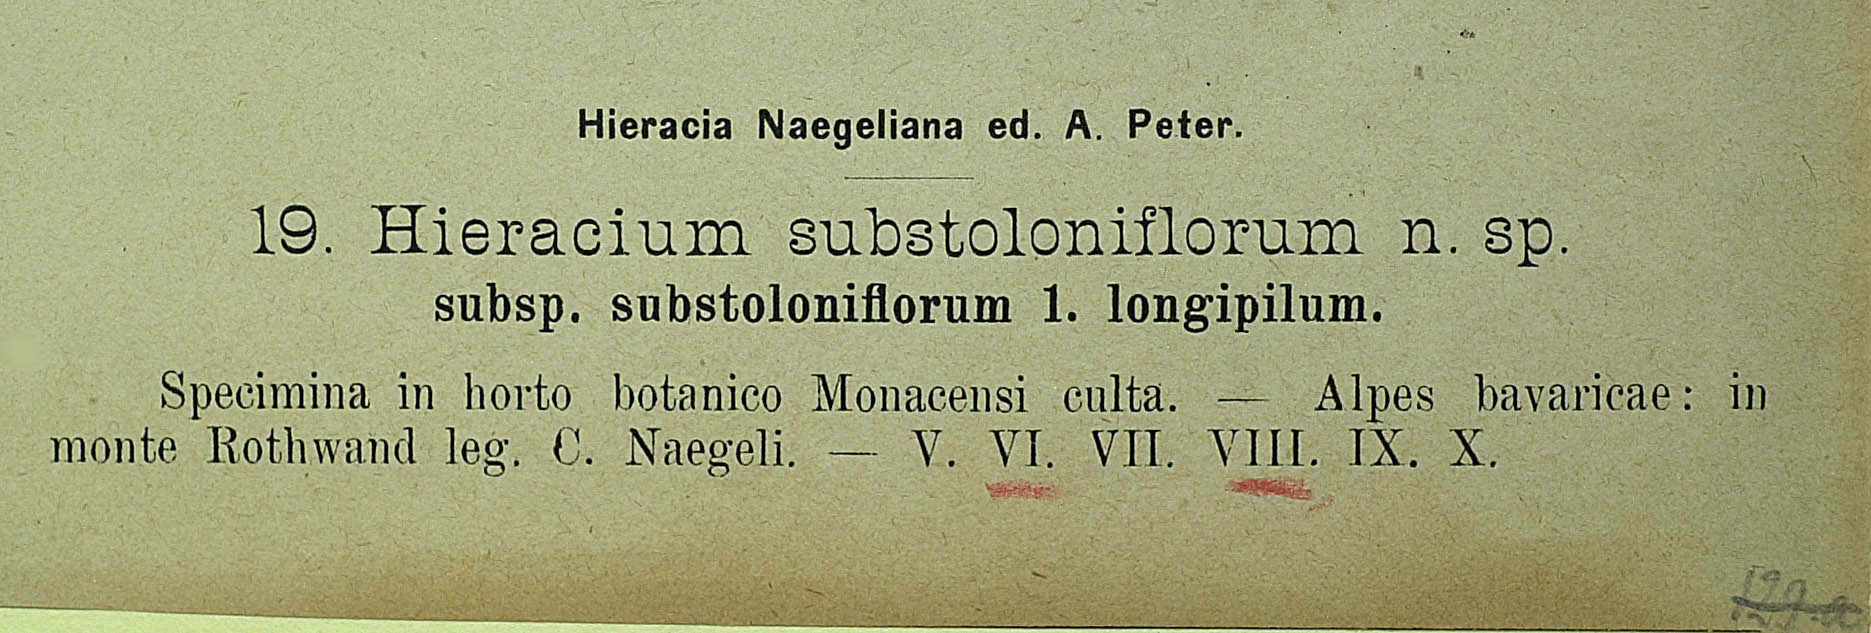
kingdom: Plantae
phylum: Tracheophyta
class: Magnoliopsida
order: Asterales
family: Asteraceae
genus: Pilosella
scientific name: Pilosella substoloniflora
